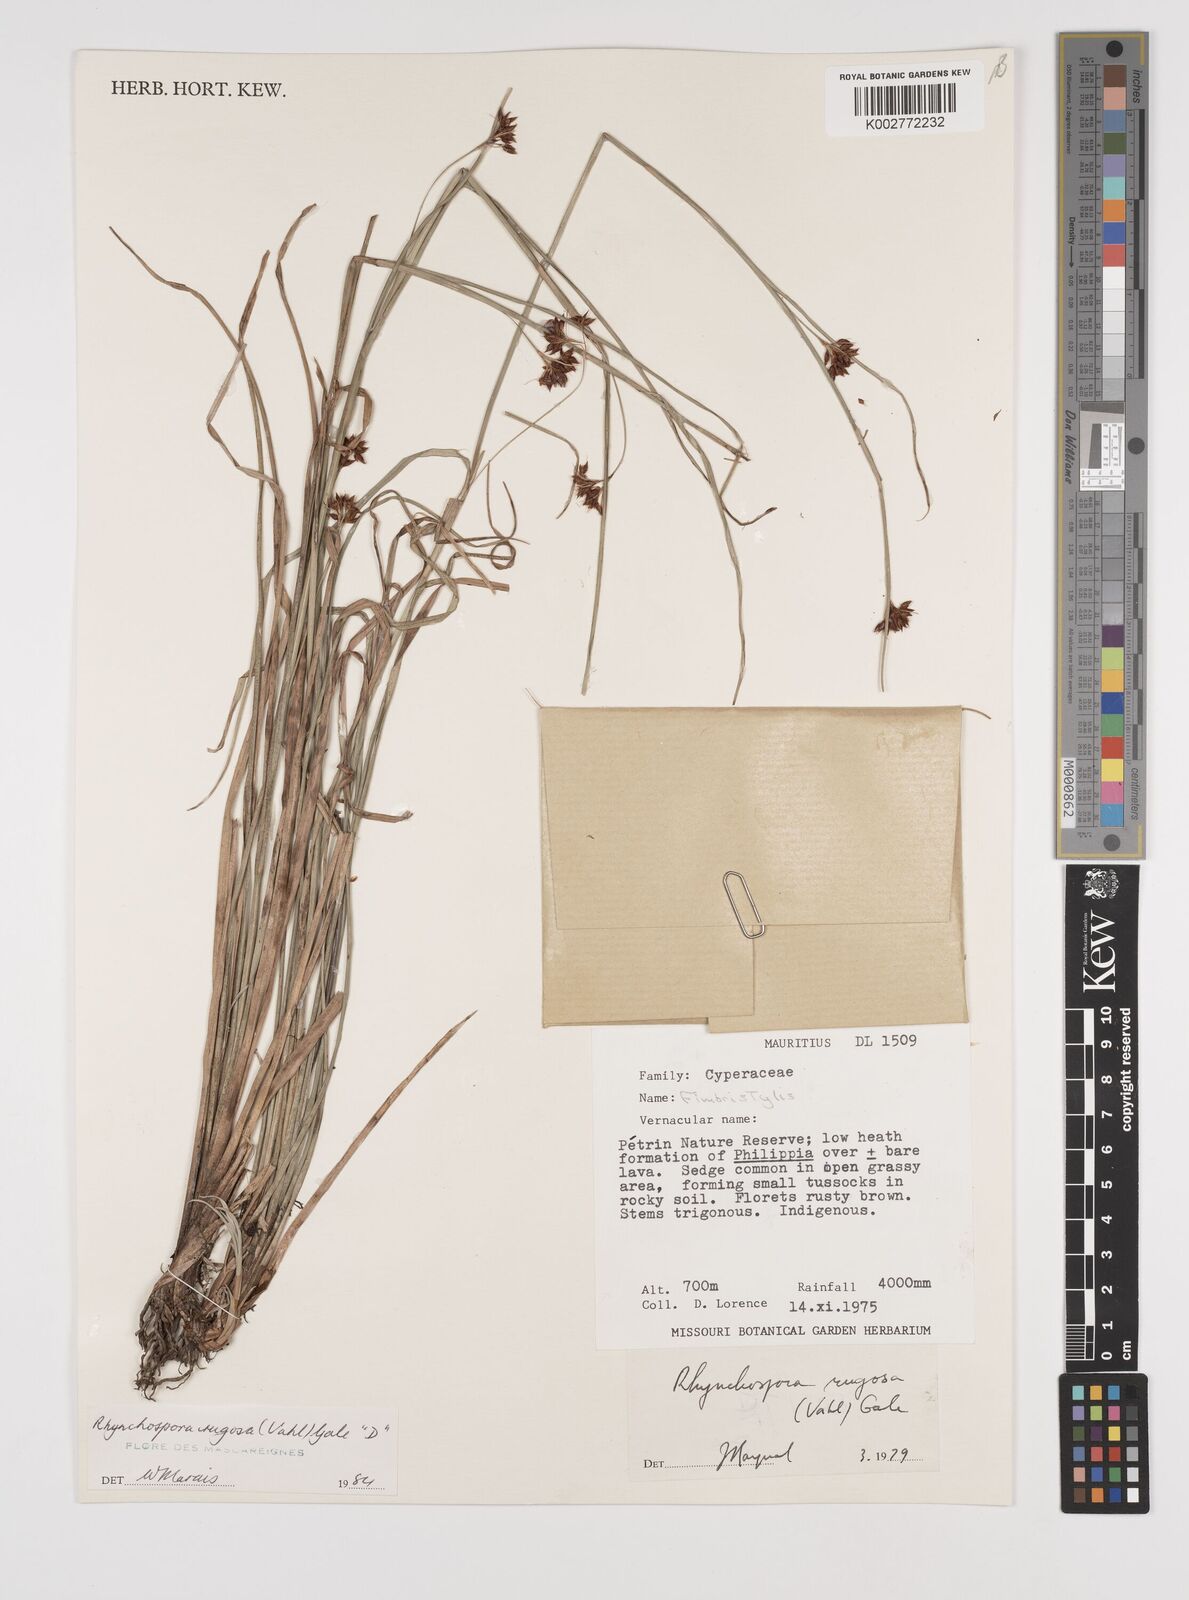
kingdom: Plantae
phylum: Tracheophyta
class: Liliopsida
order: Poales
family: Cyperaceae
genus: Rhynchospora
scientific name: Rhynchospora rugosa
